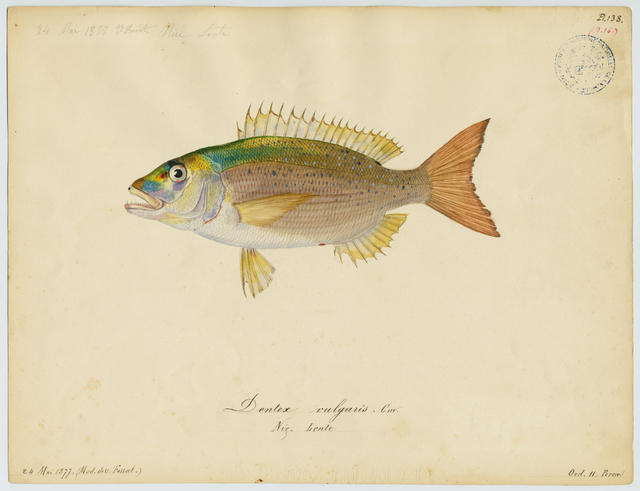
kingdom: Animalia
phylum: Chordata
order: Perciformes
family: Sparidae
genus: Dentex
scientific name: Dentex dentex
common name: Dentex
